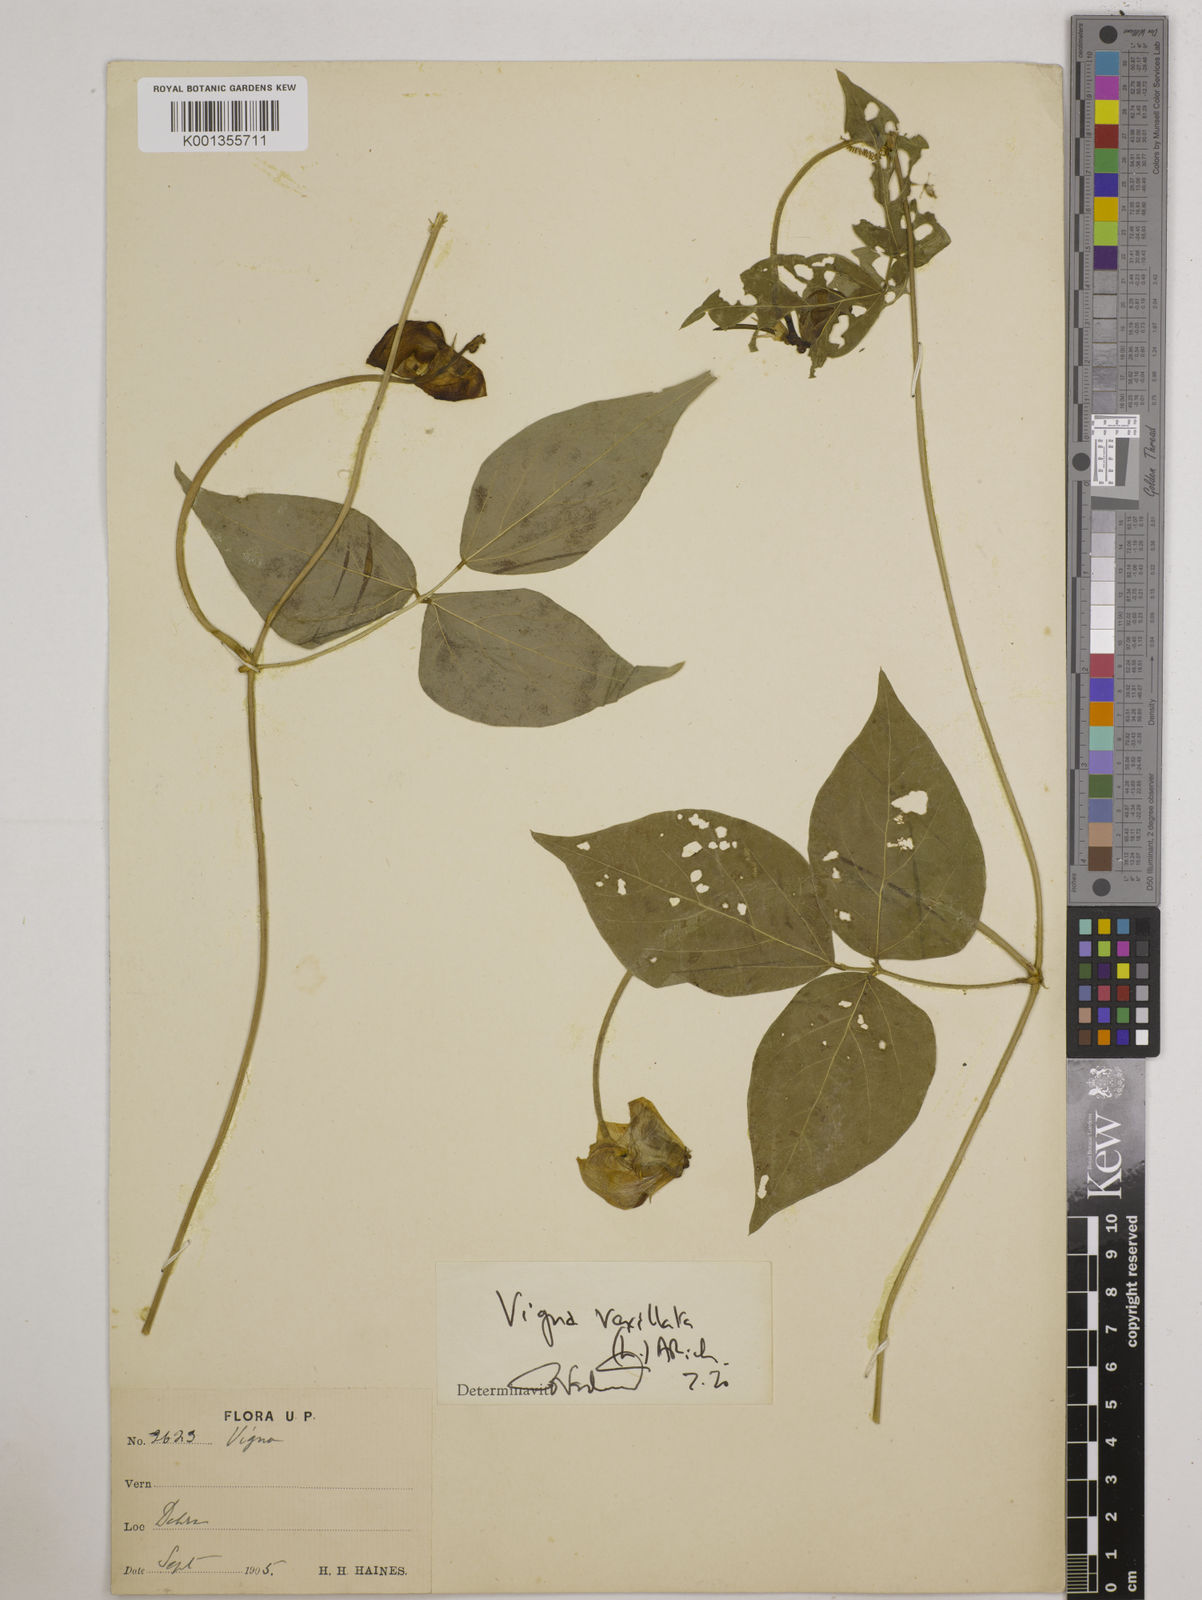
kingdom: Plantae
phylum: Tracheophyta
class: Magnoliopsida
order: Fabales
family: Fabaceae
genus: Vigna
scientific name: Vigna vexillata
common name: Zombi pea
